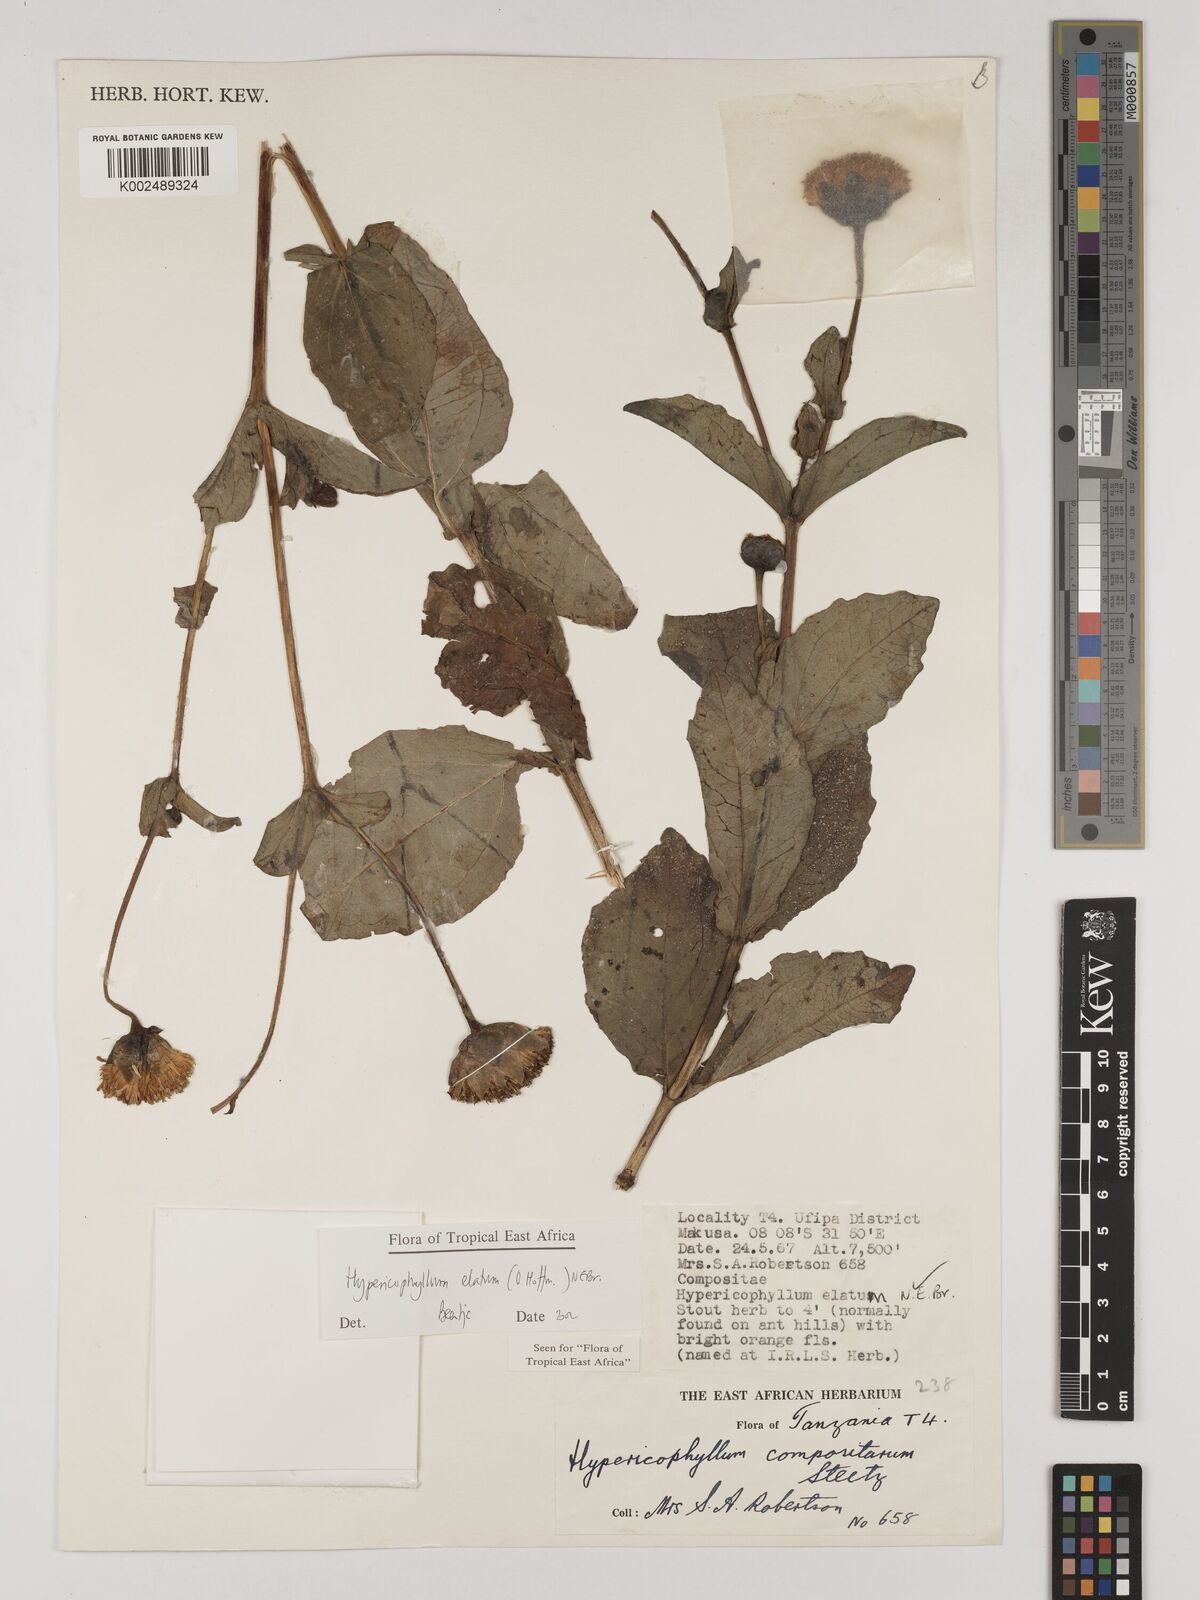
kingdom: Plantae
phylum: Tracheophyta
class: Magnoliopsida
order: Asterales
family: Asteraceae
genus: Hypericophyllum
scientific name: Hypericophyllum elatum
